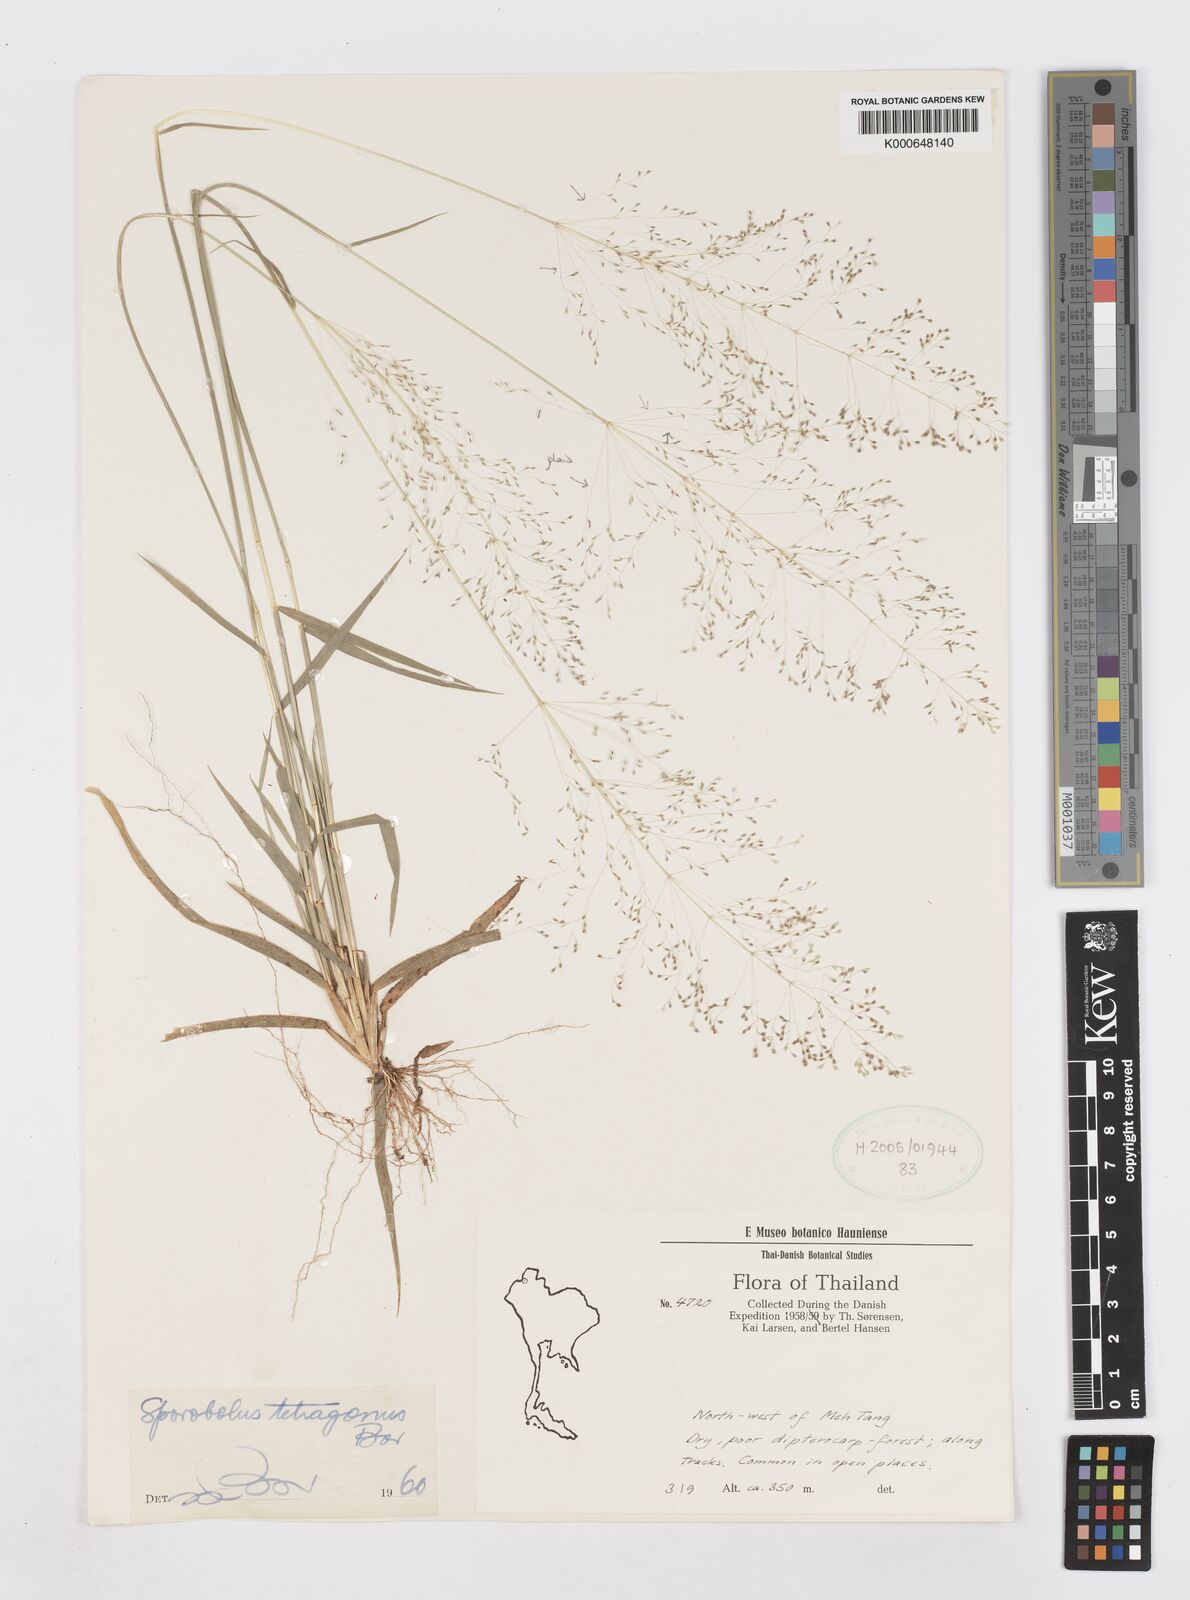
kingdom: Plantae
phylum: Tracheophyta
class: Liliopsida
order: Poales
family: Poaceae
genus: Sporobolus
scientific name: Sporobolus tetragonus
